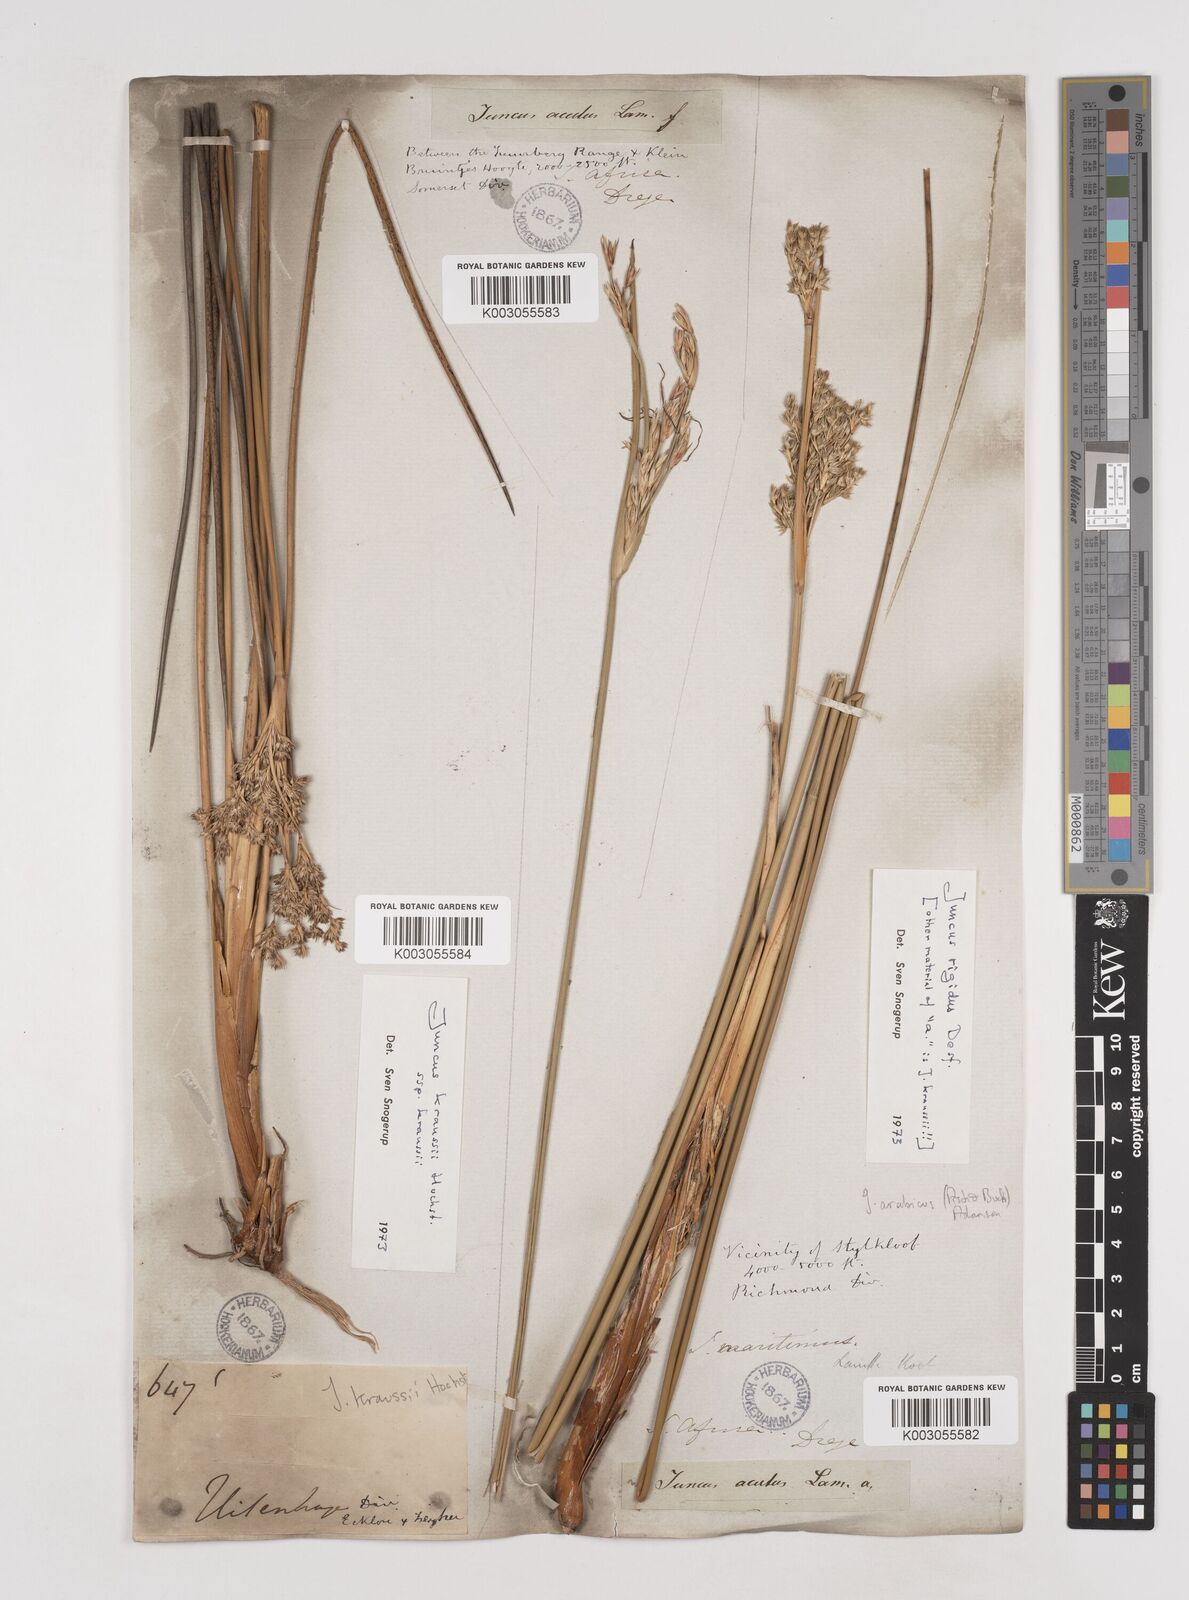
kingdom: Plantae
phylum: Tracheophyta
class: Liliopsida
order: Poales
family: Juncaceae
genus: Juncus
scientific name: Juncus kraussii
